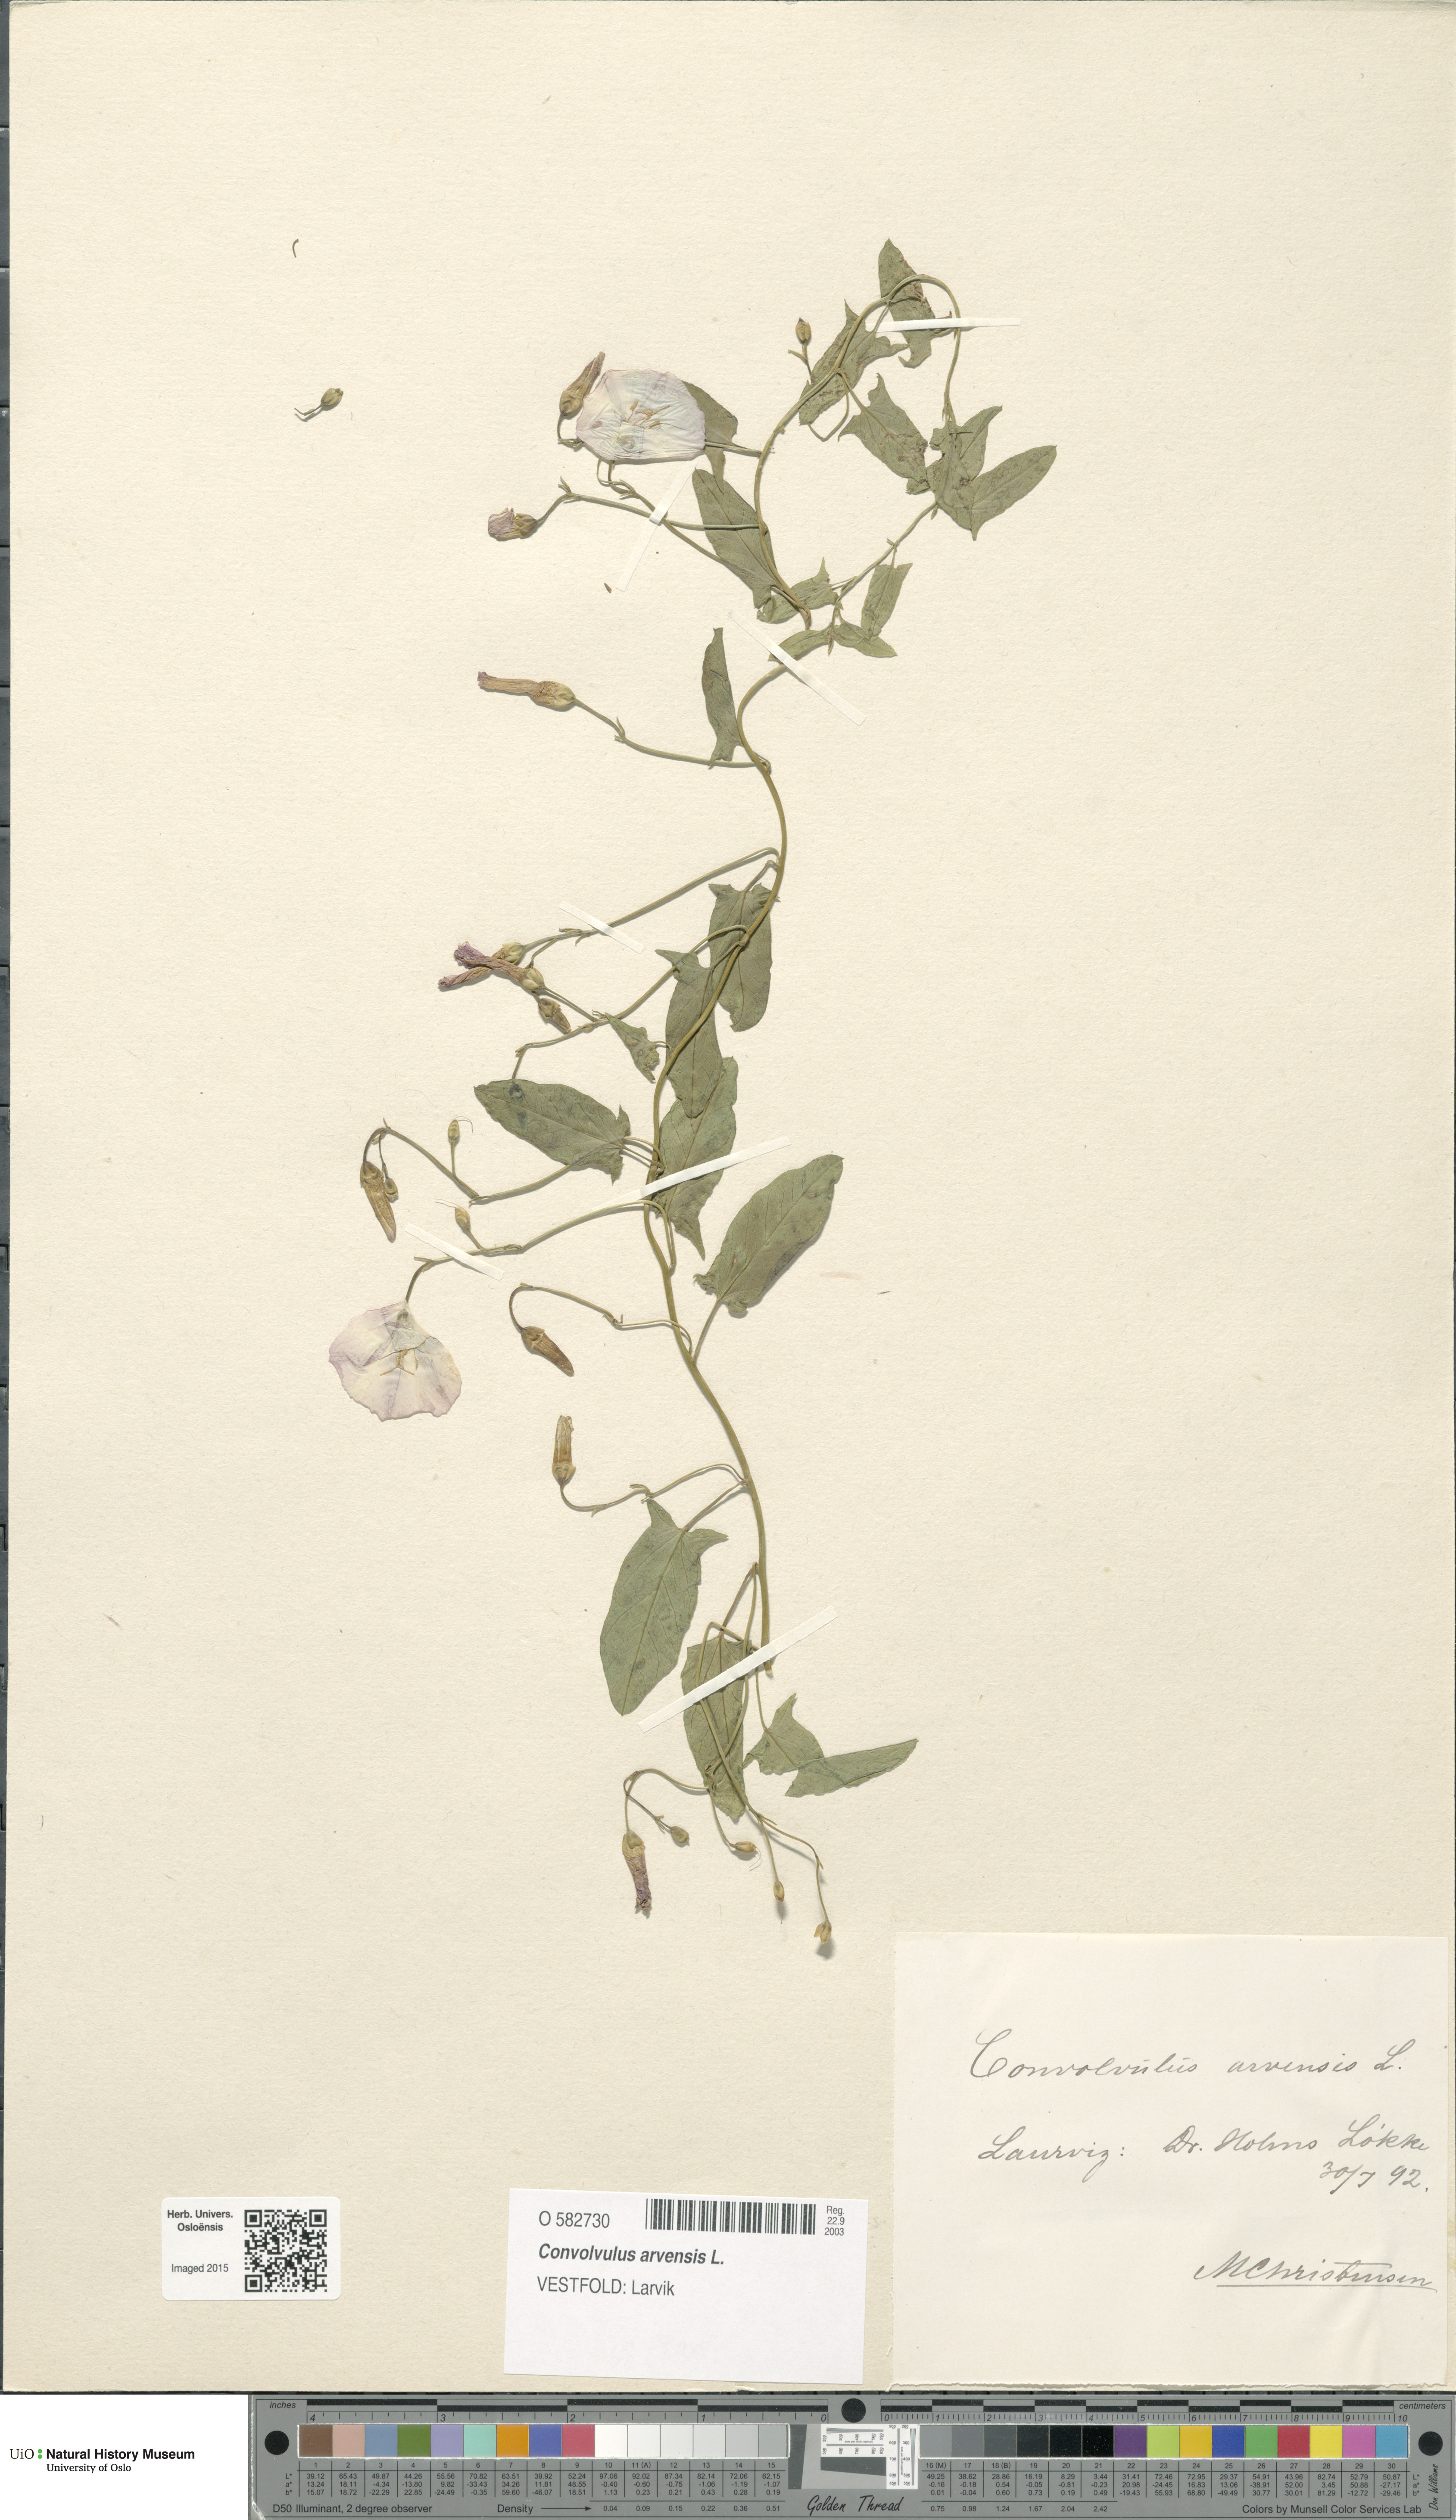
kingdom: Plantae
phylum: Tracheophyta
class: Magnoliopsida
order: Solanales
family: Convolvulaceae
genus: Convolvulus
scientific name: Convolvulus arvensis
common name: Field bindweed
